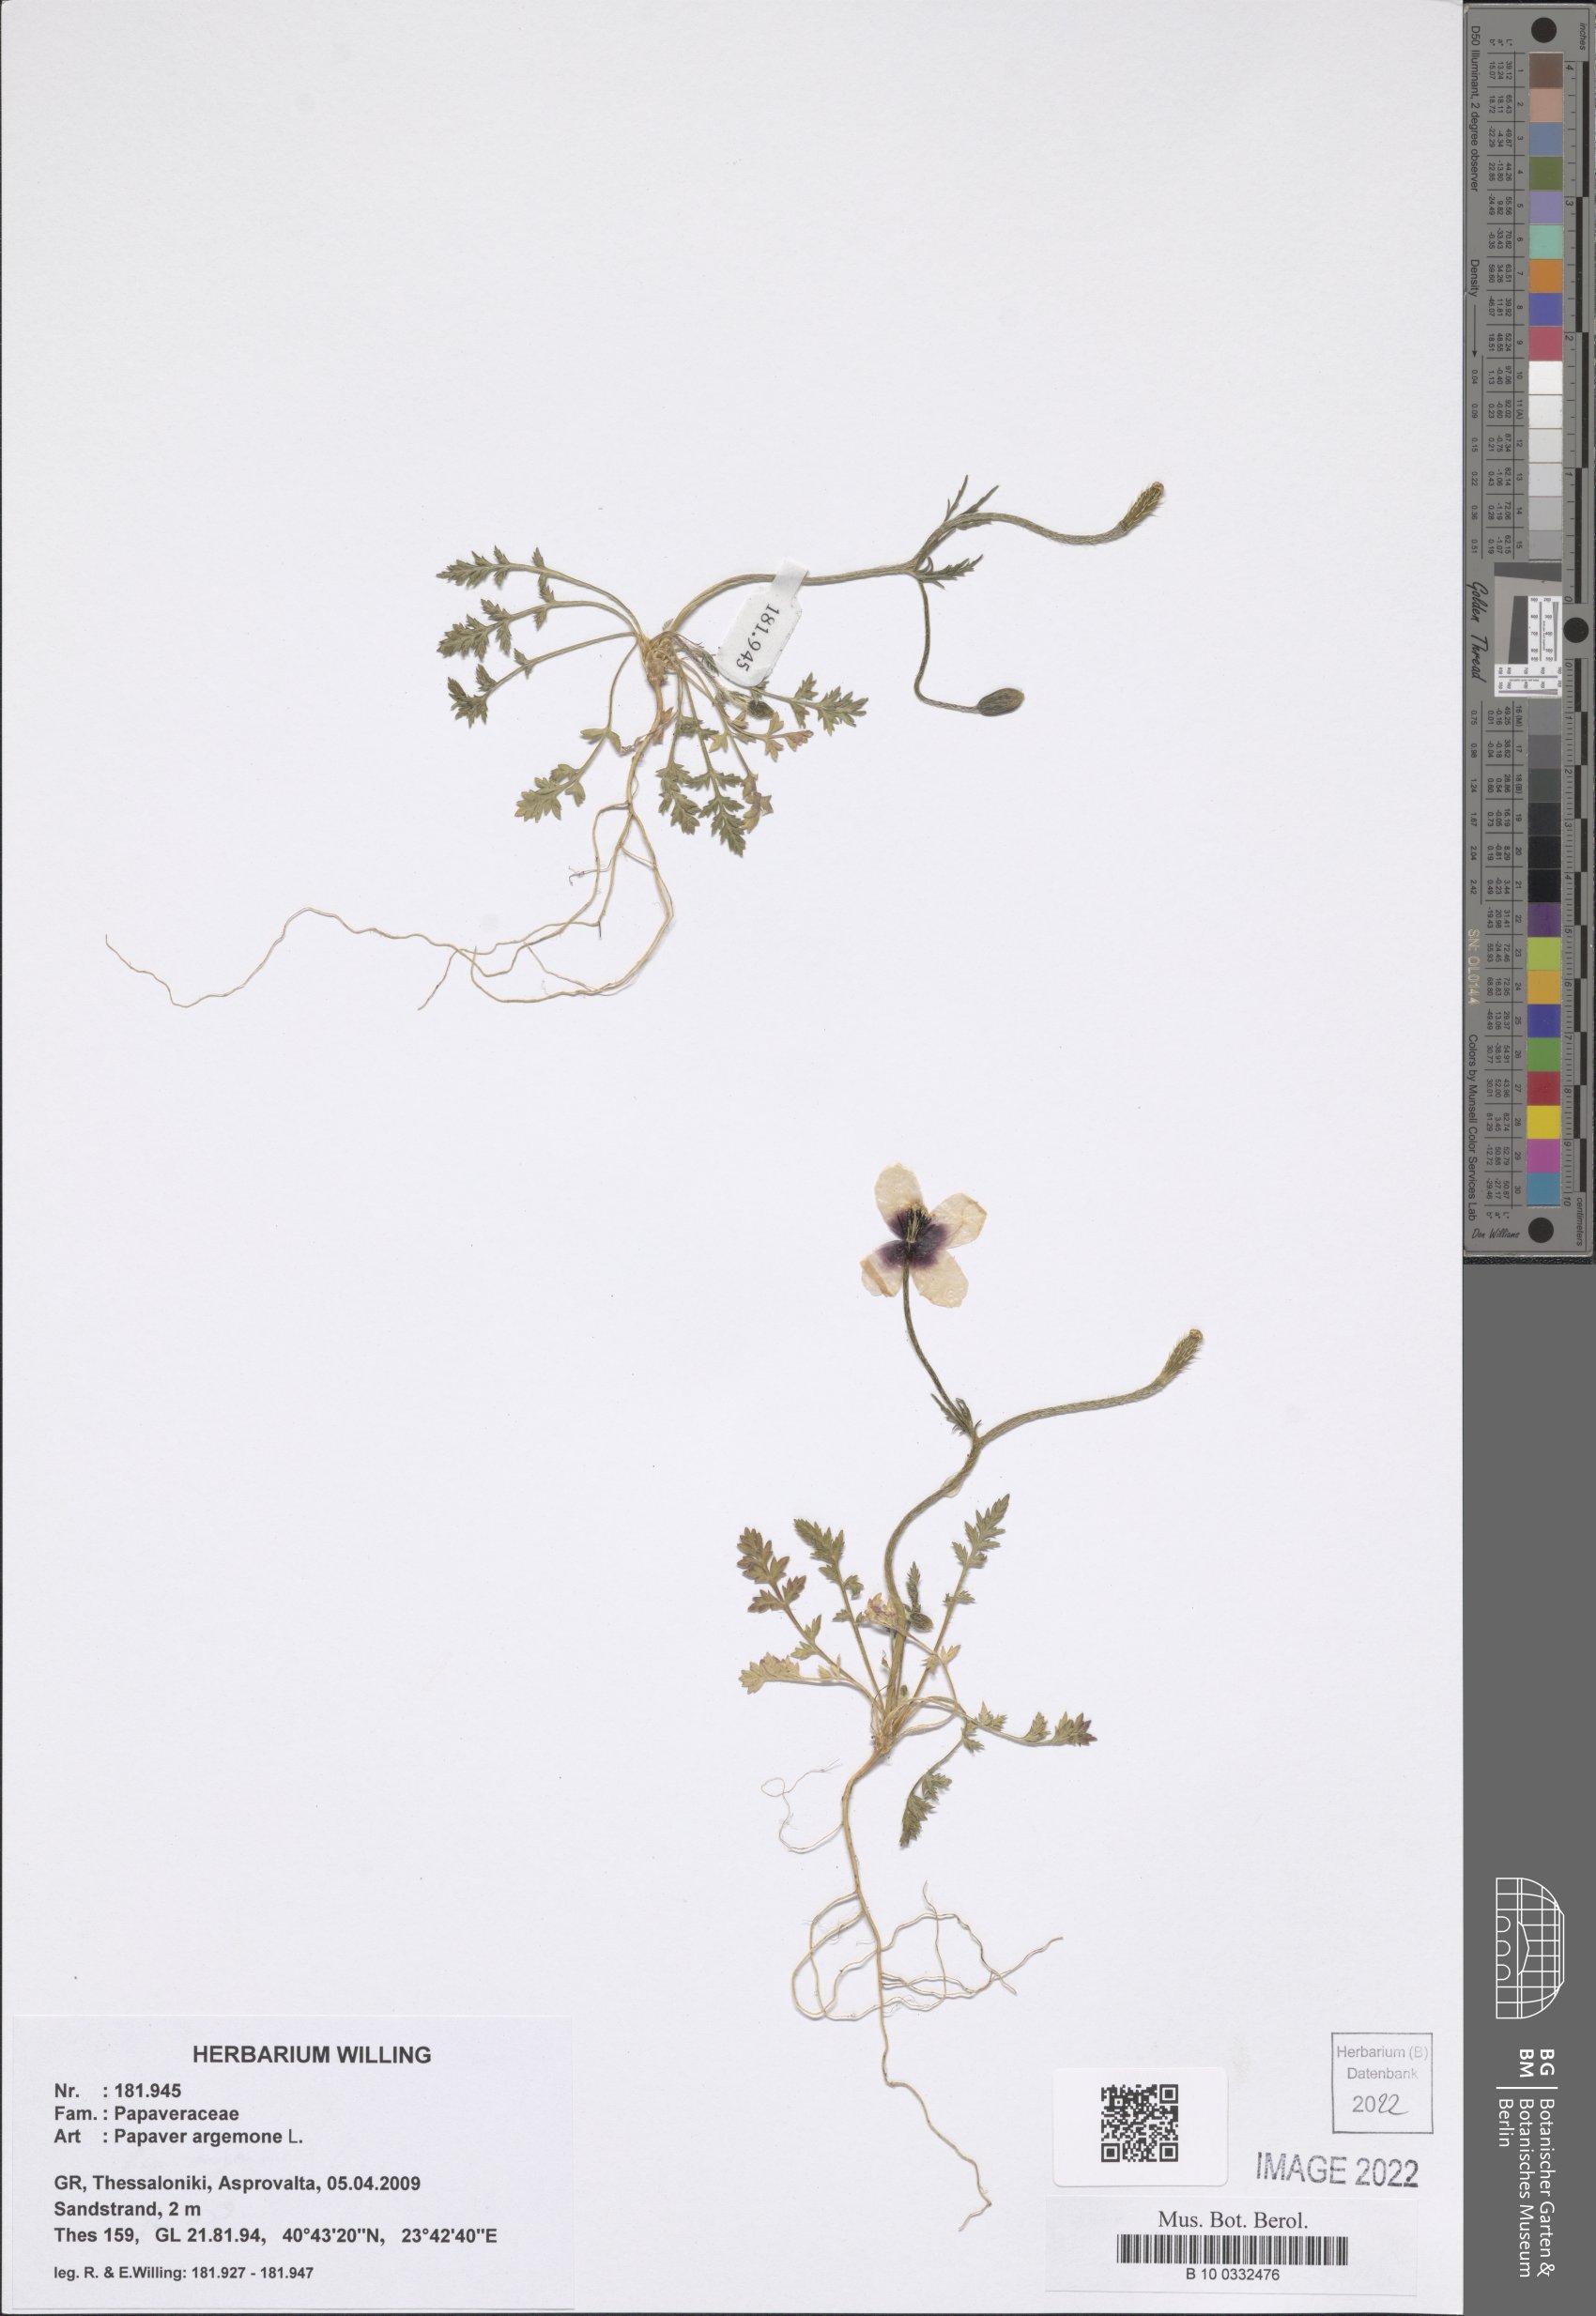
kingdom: Plantae
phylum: Tracheophyta
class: Magnoliopsida
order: Ranunculales
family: Papaveraceae
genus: Roemeria
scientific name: Roemeria argemone
